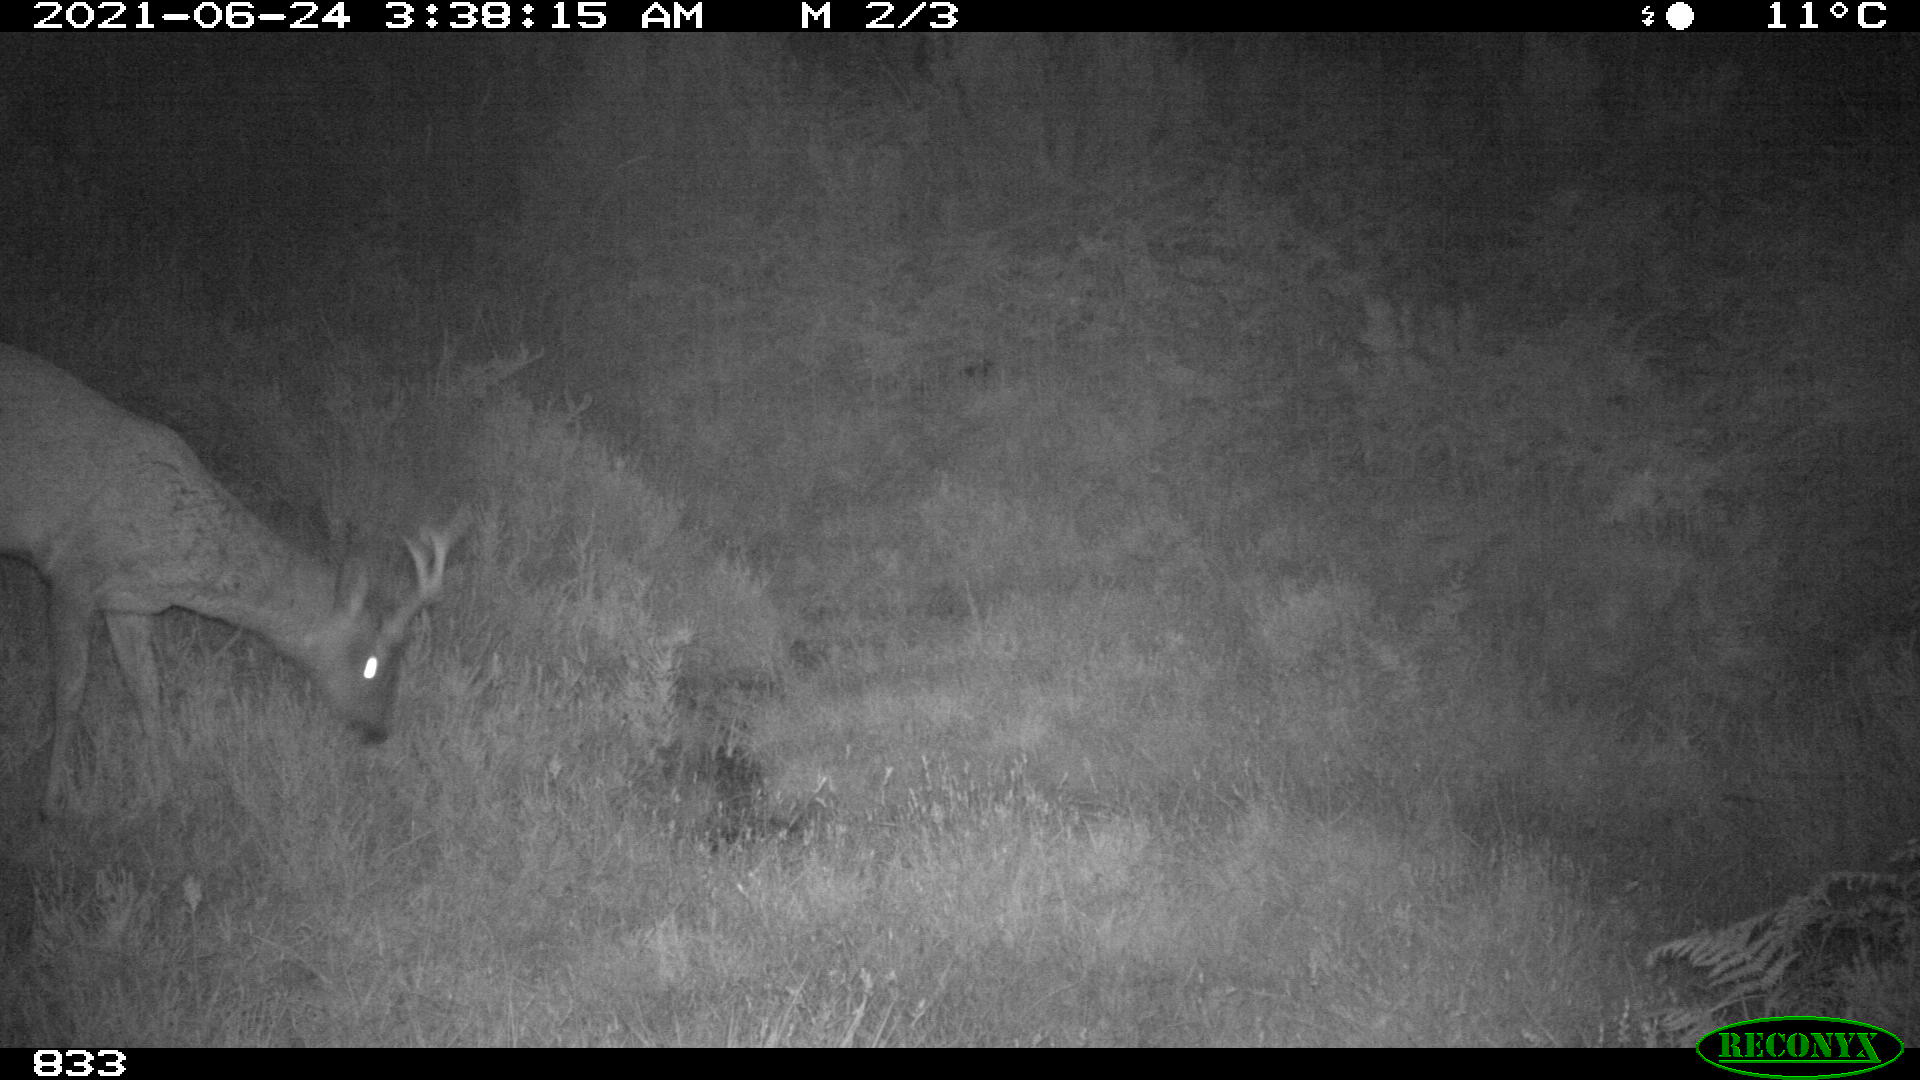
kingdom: Animalia
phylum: Chordata
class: Mammalia
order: Artiodactyla
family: Cervidae
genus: Capreolus
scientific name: Capreolus capreolus
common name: Western roe deer
